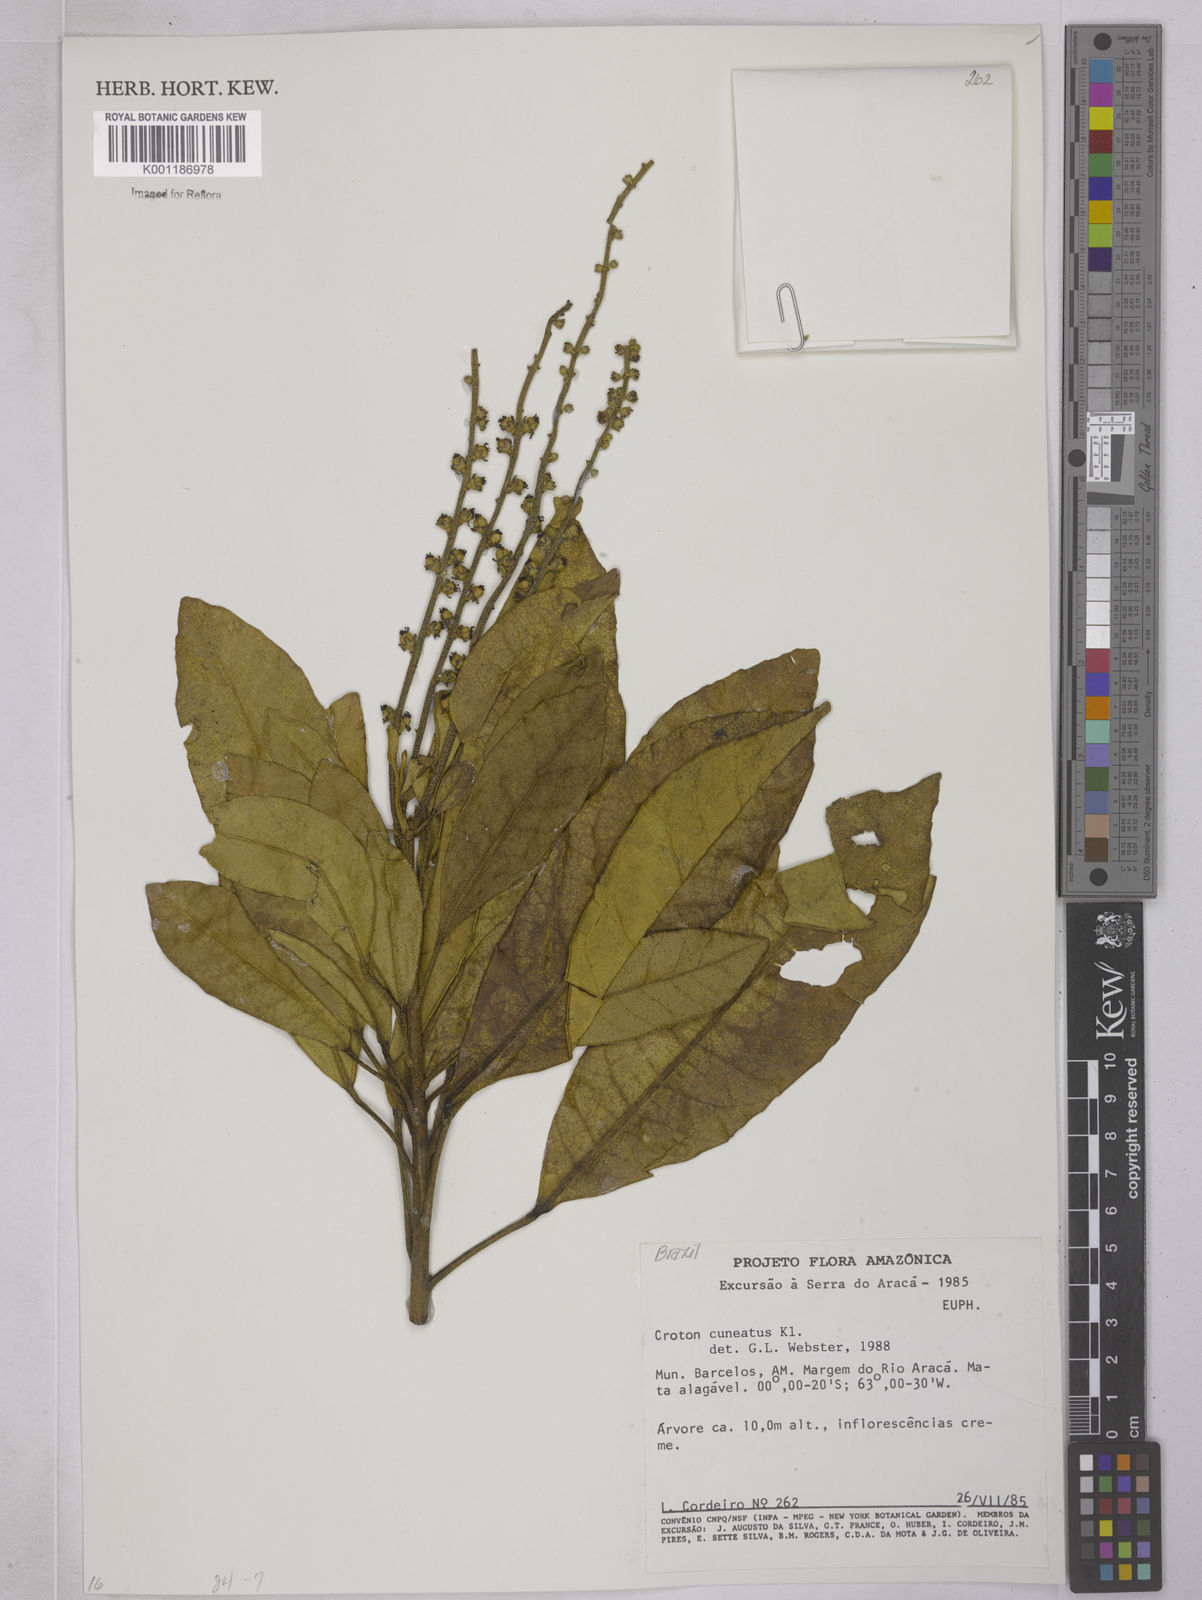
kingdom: Plantae
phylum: Tracheophyta
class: Magnoliopsida
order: Malpighiales
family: Euphorbiaceae
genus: Croton
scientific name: Croton
